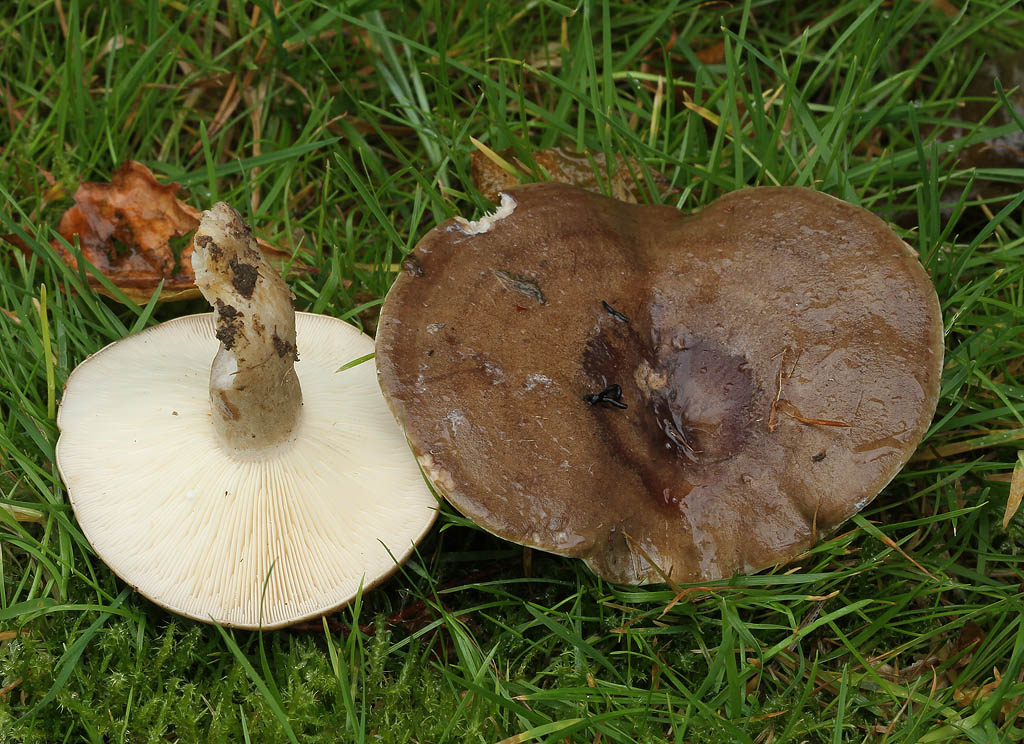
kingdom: Fungi
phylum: Basidiomycota
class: Agaricomycetes
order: Russulales
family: Russulaceae
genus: Lactarius
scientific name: Lactarius fluens
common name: lysrandet mælkehat
